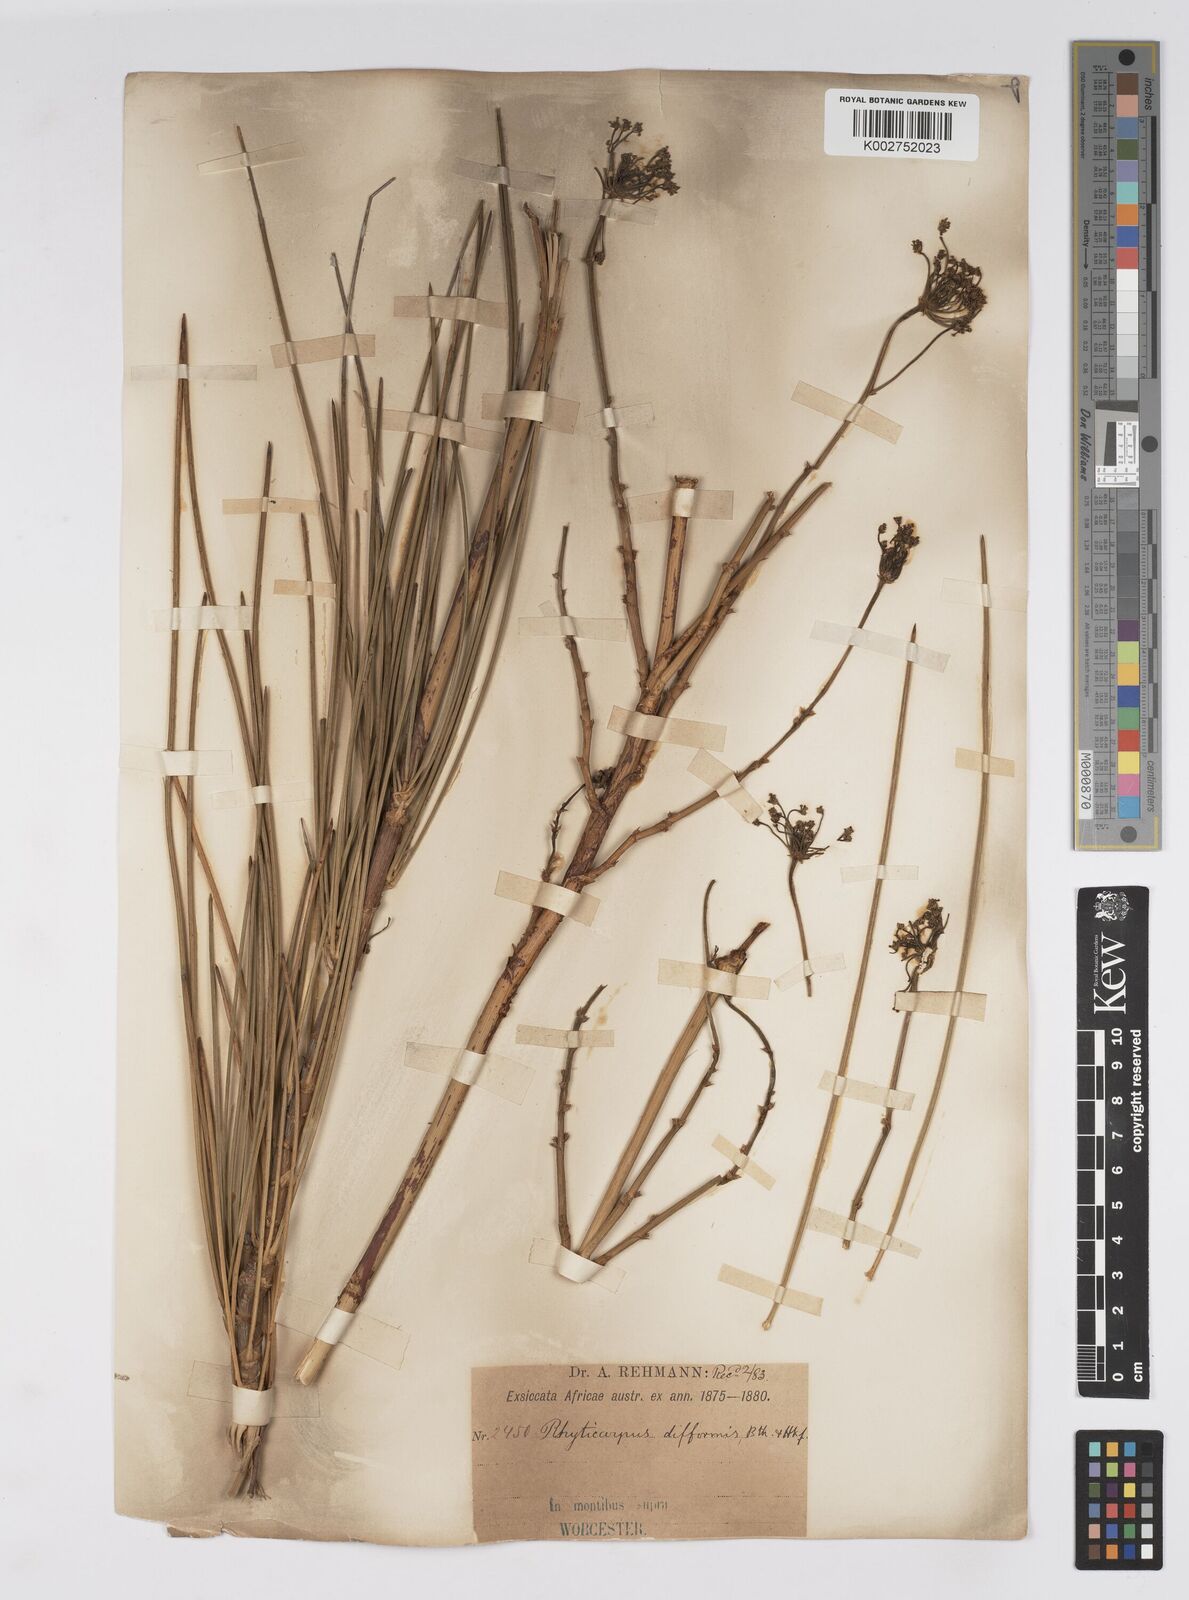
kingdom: Plantae
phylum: Tracheophyta
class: Magnoliopsida
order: Apiales
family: Apiaceae
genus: Anginon
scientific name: Anginon difforme
